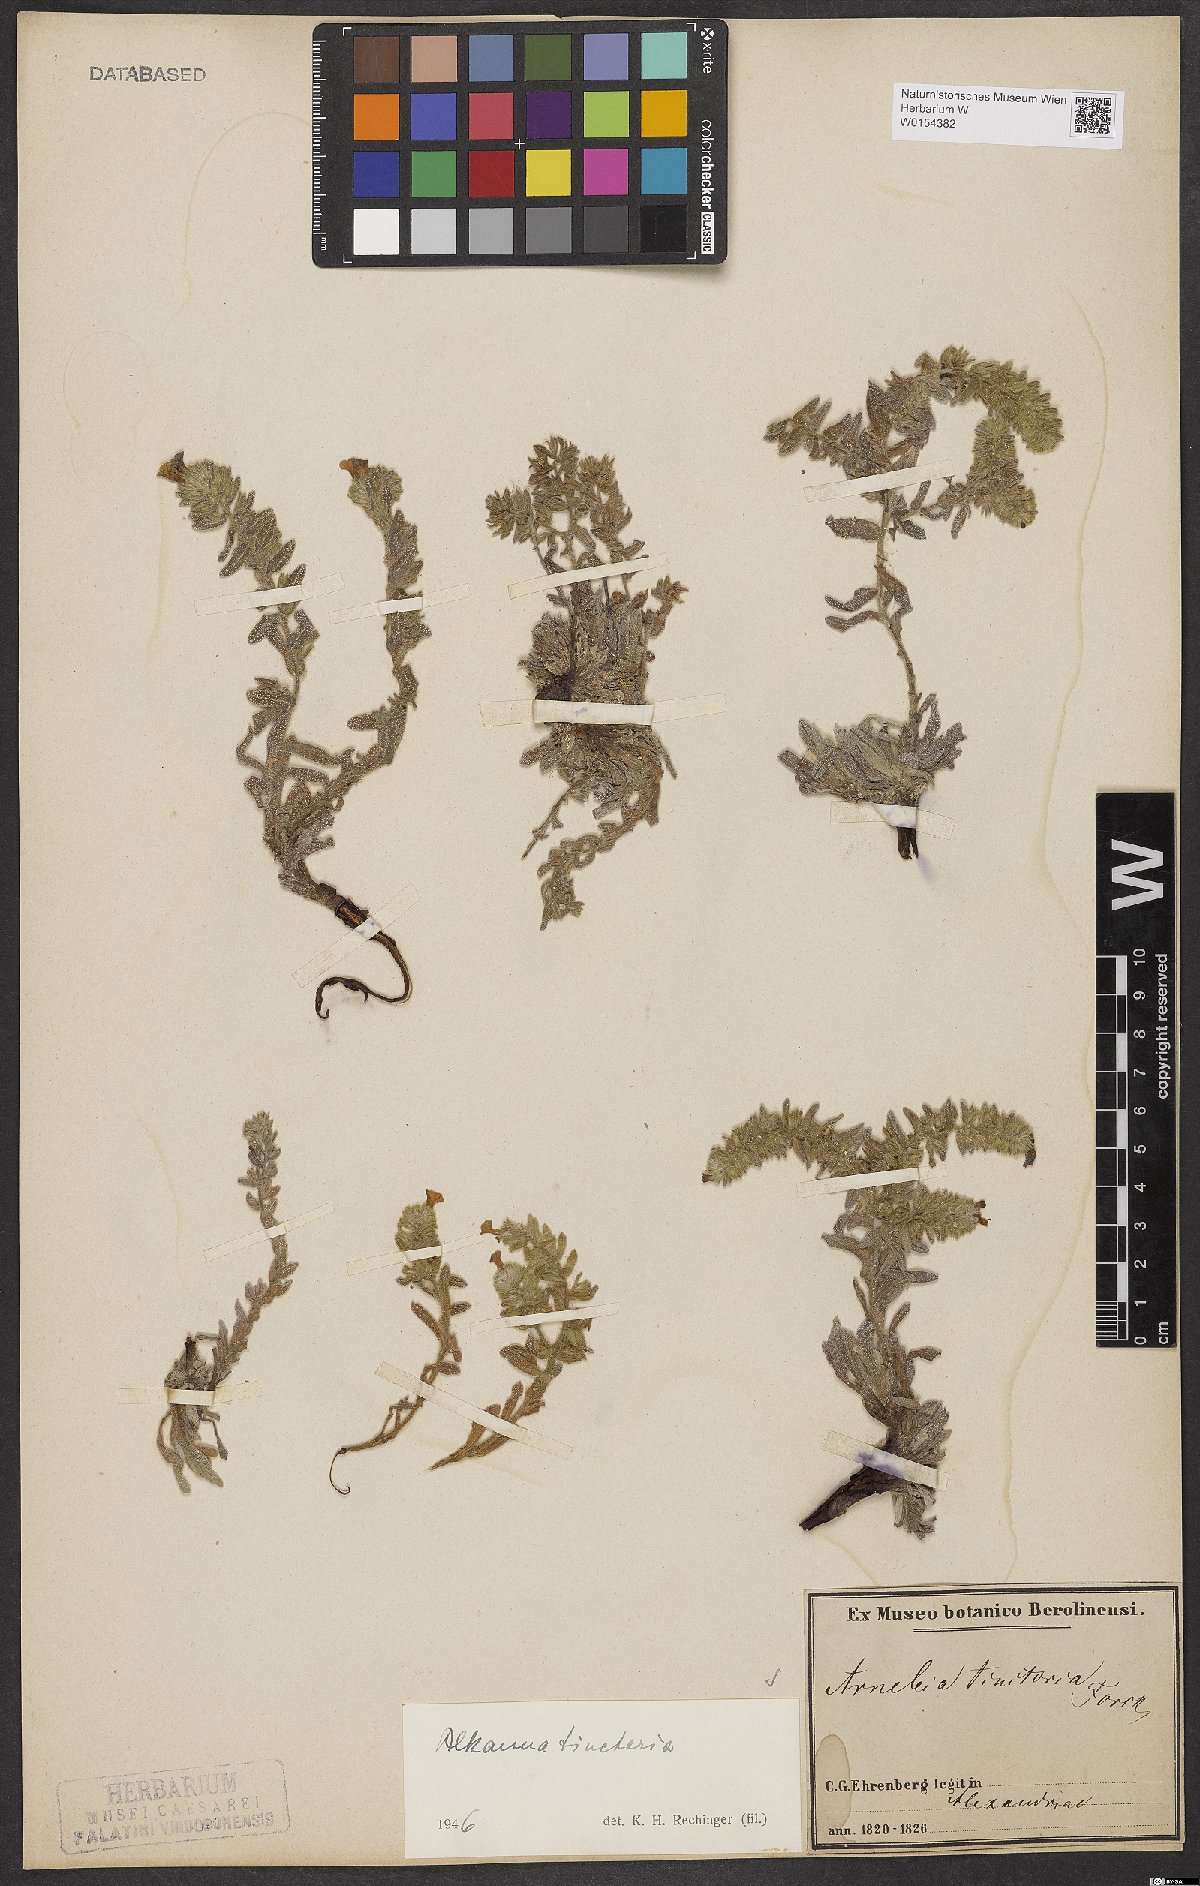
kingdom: Plantae
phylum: Tracheophyta
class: Magnoliopsida
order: Boraginales
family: Boraginaceae
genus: Alkanna
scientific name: Alkanna tinctoria
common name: Dyer's-alkanet
